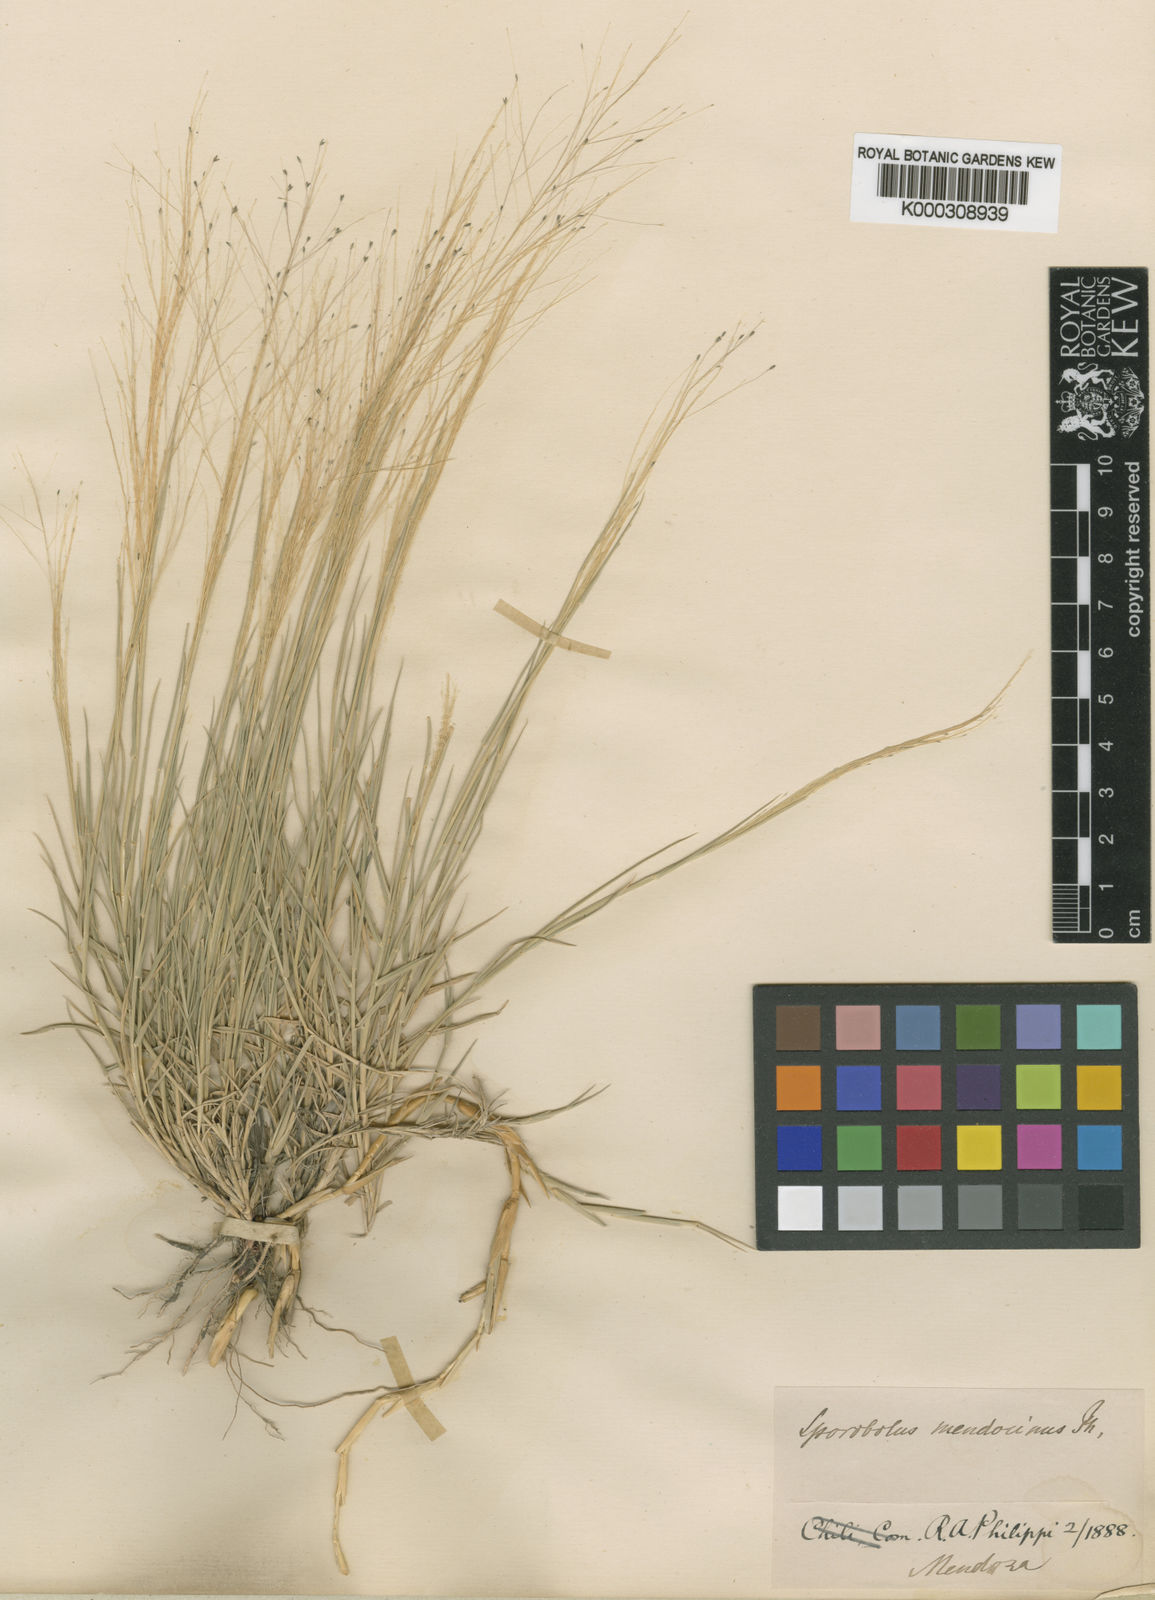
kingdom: Plantae
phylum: Tracheophyta
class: Liliopsida
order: Poales
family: Poaceae
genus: Muhlenbergia
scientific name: Muhlenbergia asperifolia
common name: Alkali muhly
